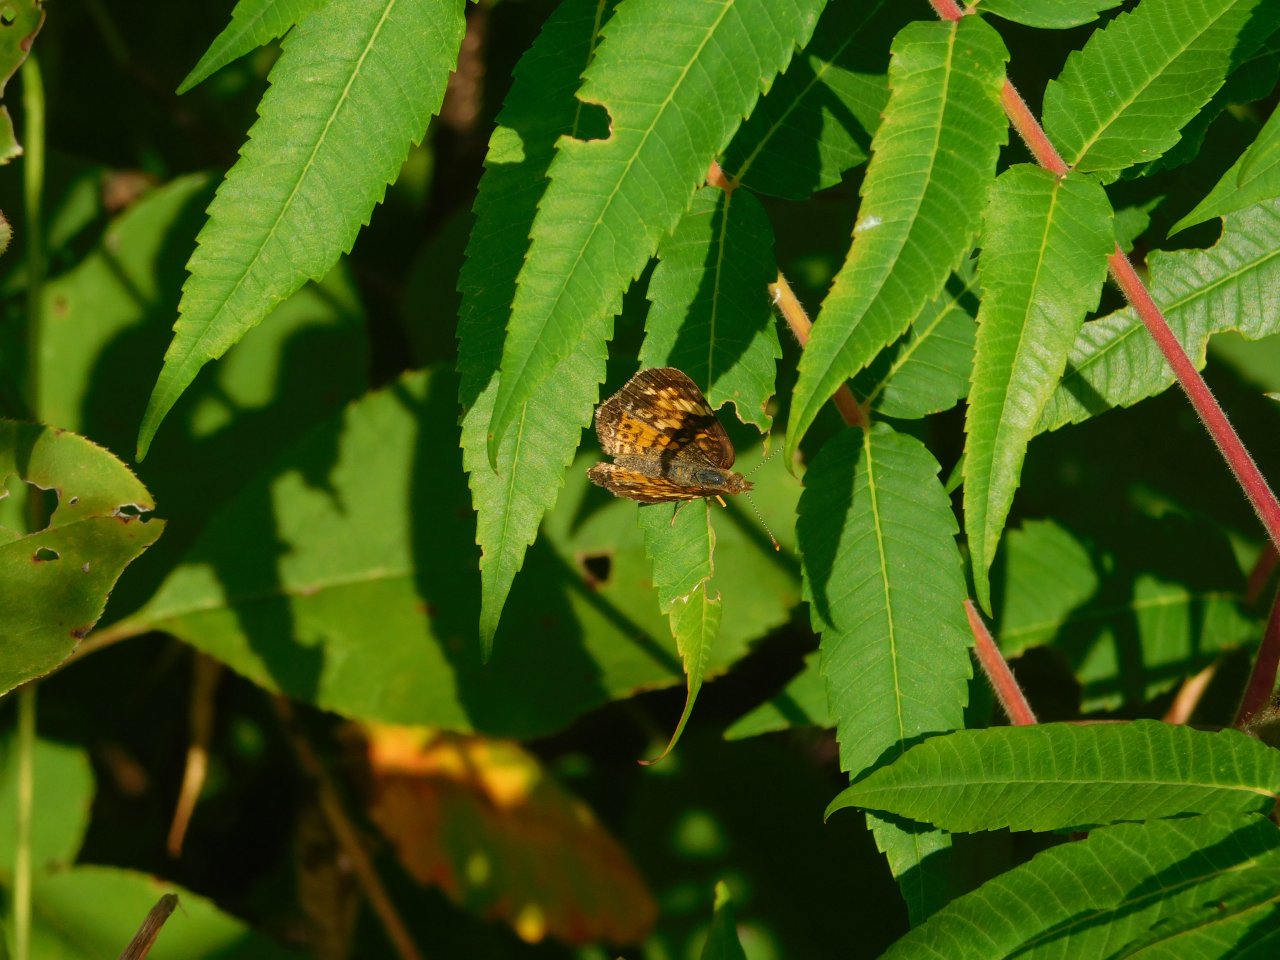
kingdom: Animalia
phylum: Arthropoda
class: Insecta
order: Lepidoptera
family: Nymphalidae
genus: Phyciodes
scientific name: Phyciodes tharos
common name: Northern Crescent
